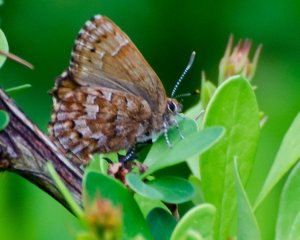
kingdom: Animalia
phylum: Arthropoda
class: Insecta
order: Lepidoptera
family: Lycaenidae
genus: Incisalia
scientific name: Incisalia niphon
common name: Eastern Pine Elfin
